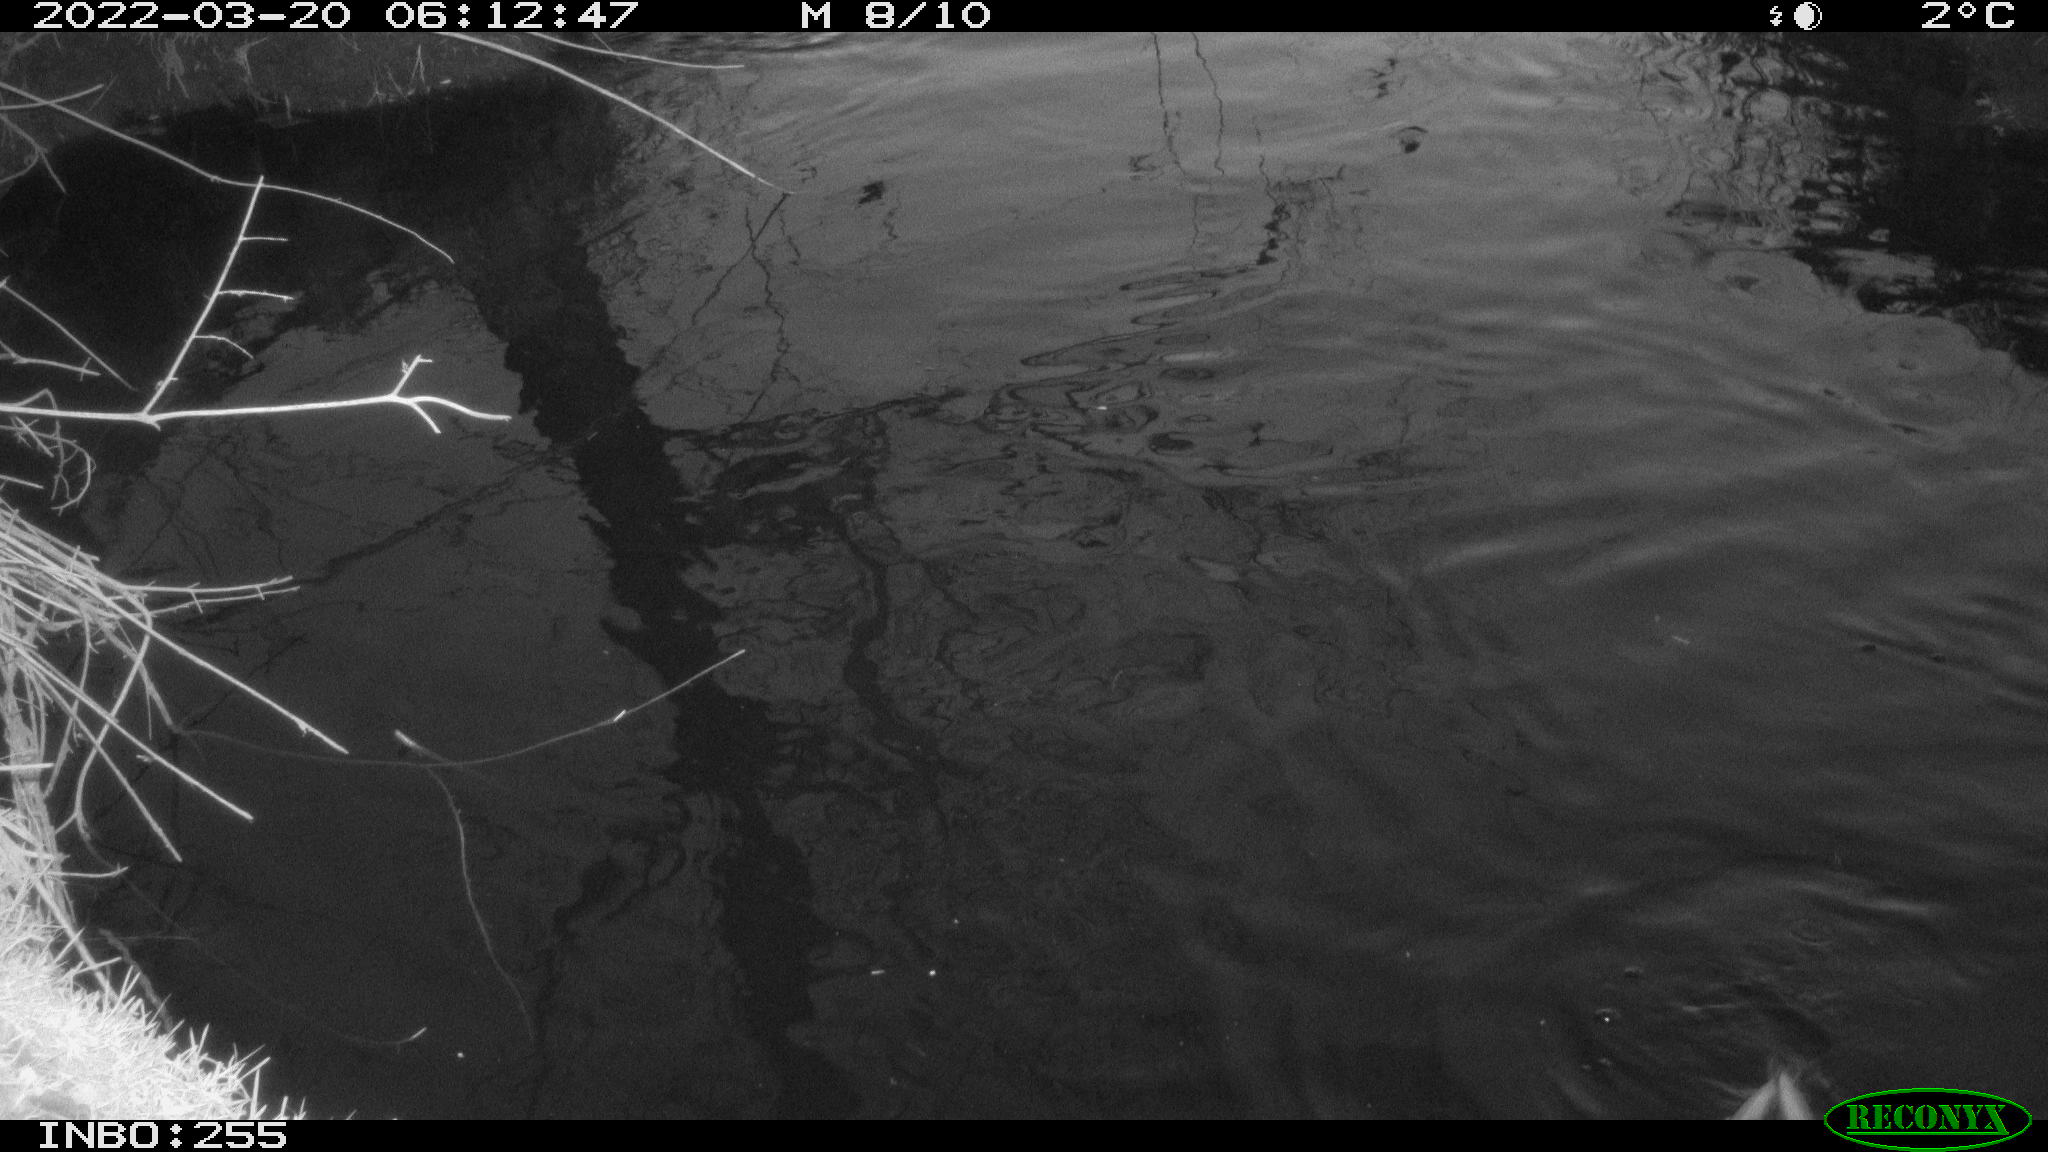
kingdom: Animalia
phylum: Chordata
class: Aves
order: Anseriformes
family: Anatidae
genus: Anas
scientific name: Anas platyrhynchos
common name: Mallard
